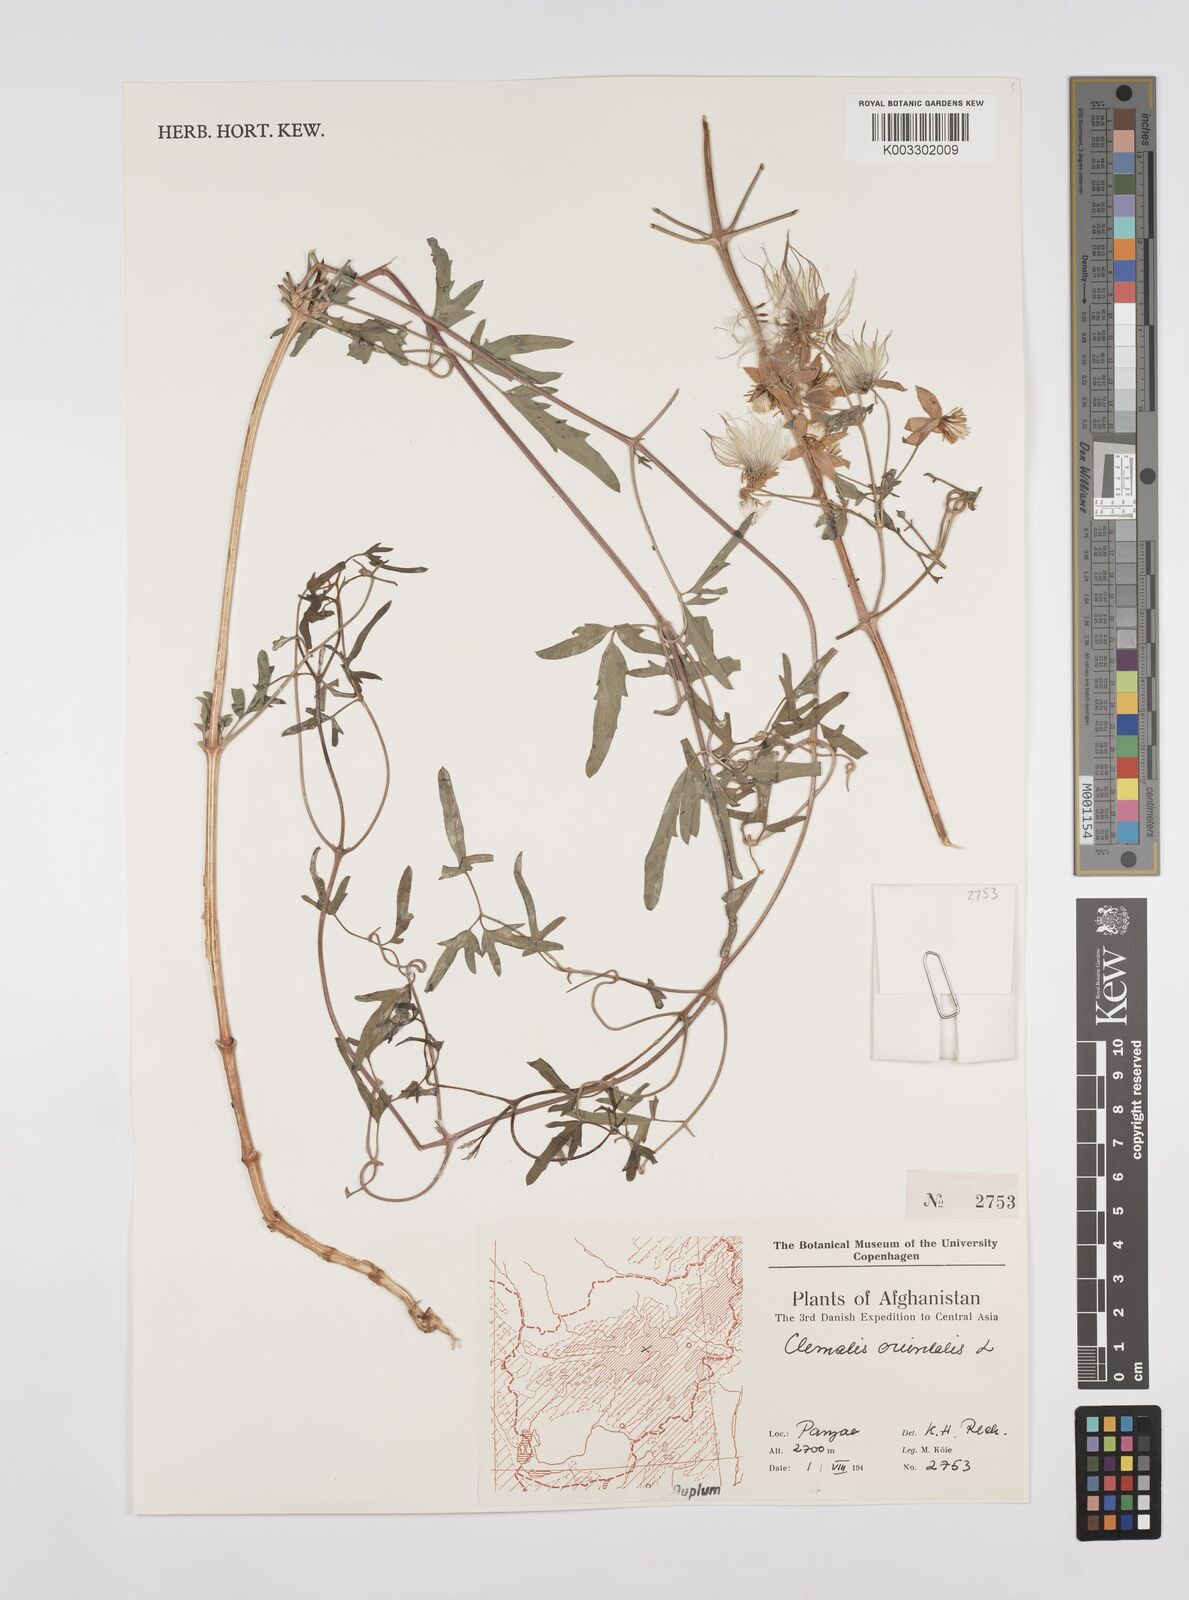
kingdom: Plantae
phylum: Tracheophyta
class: Magnoliopsida
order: Ranunculales
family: Ranunculaceae
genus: Clematis
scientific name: Clematis orientalis
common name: Oriental virgin's-bower
